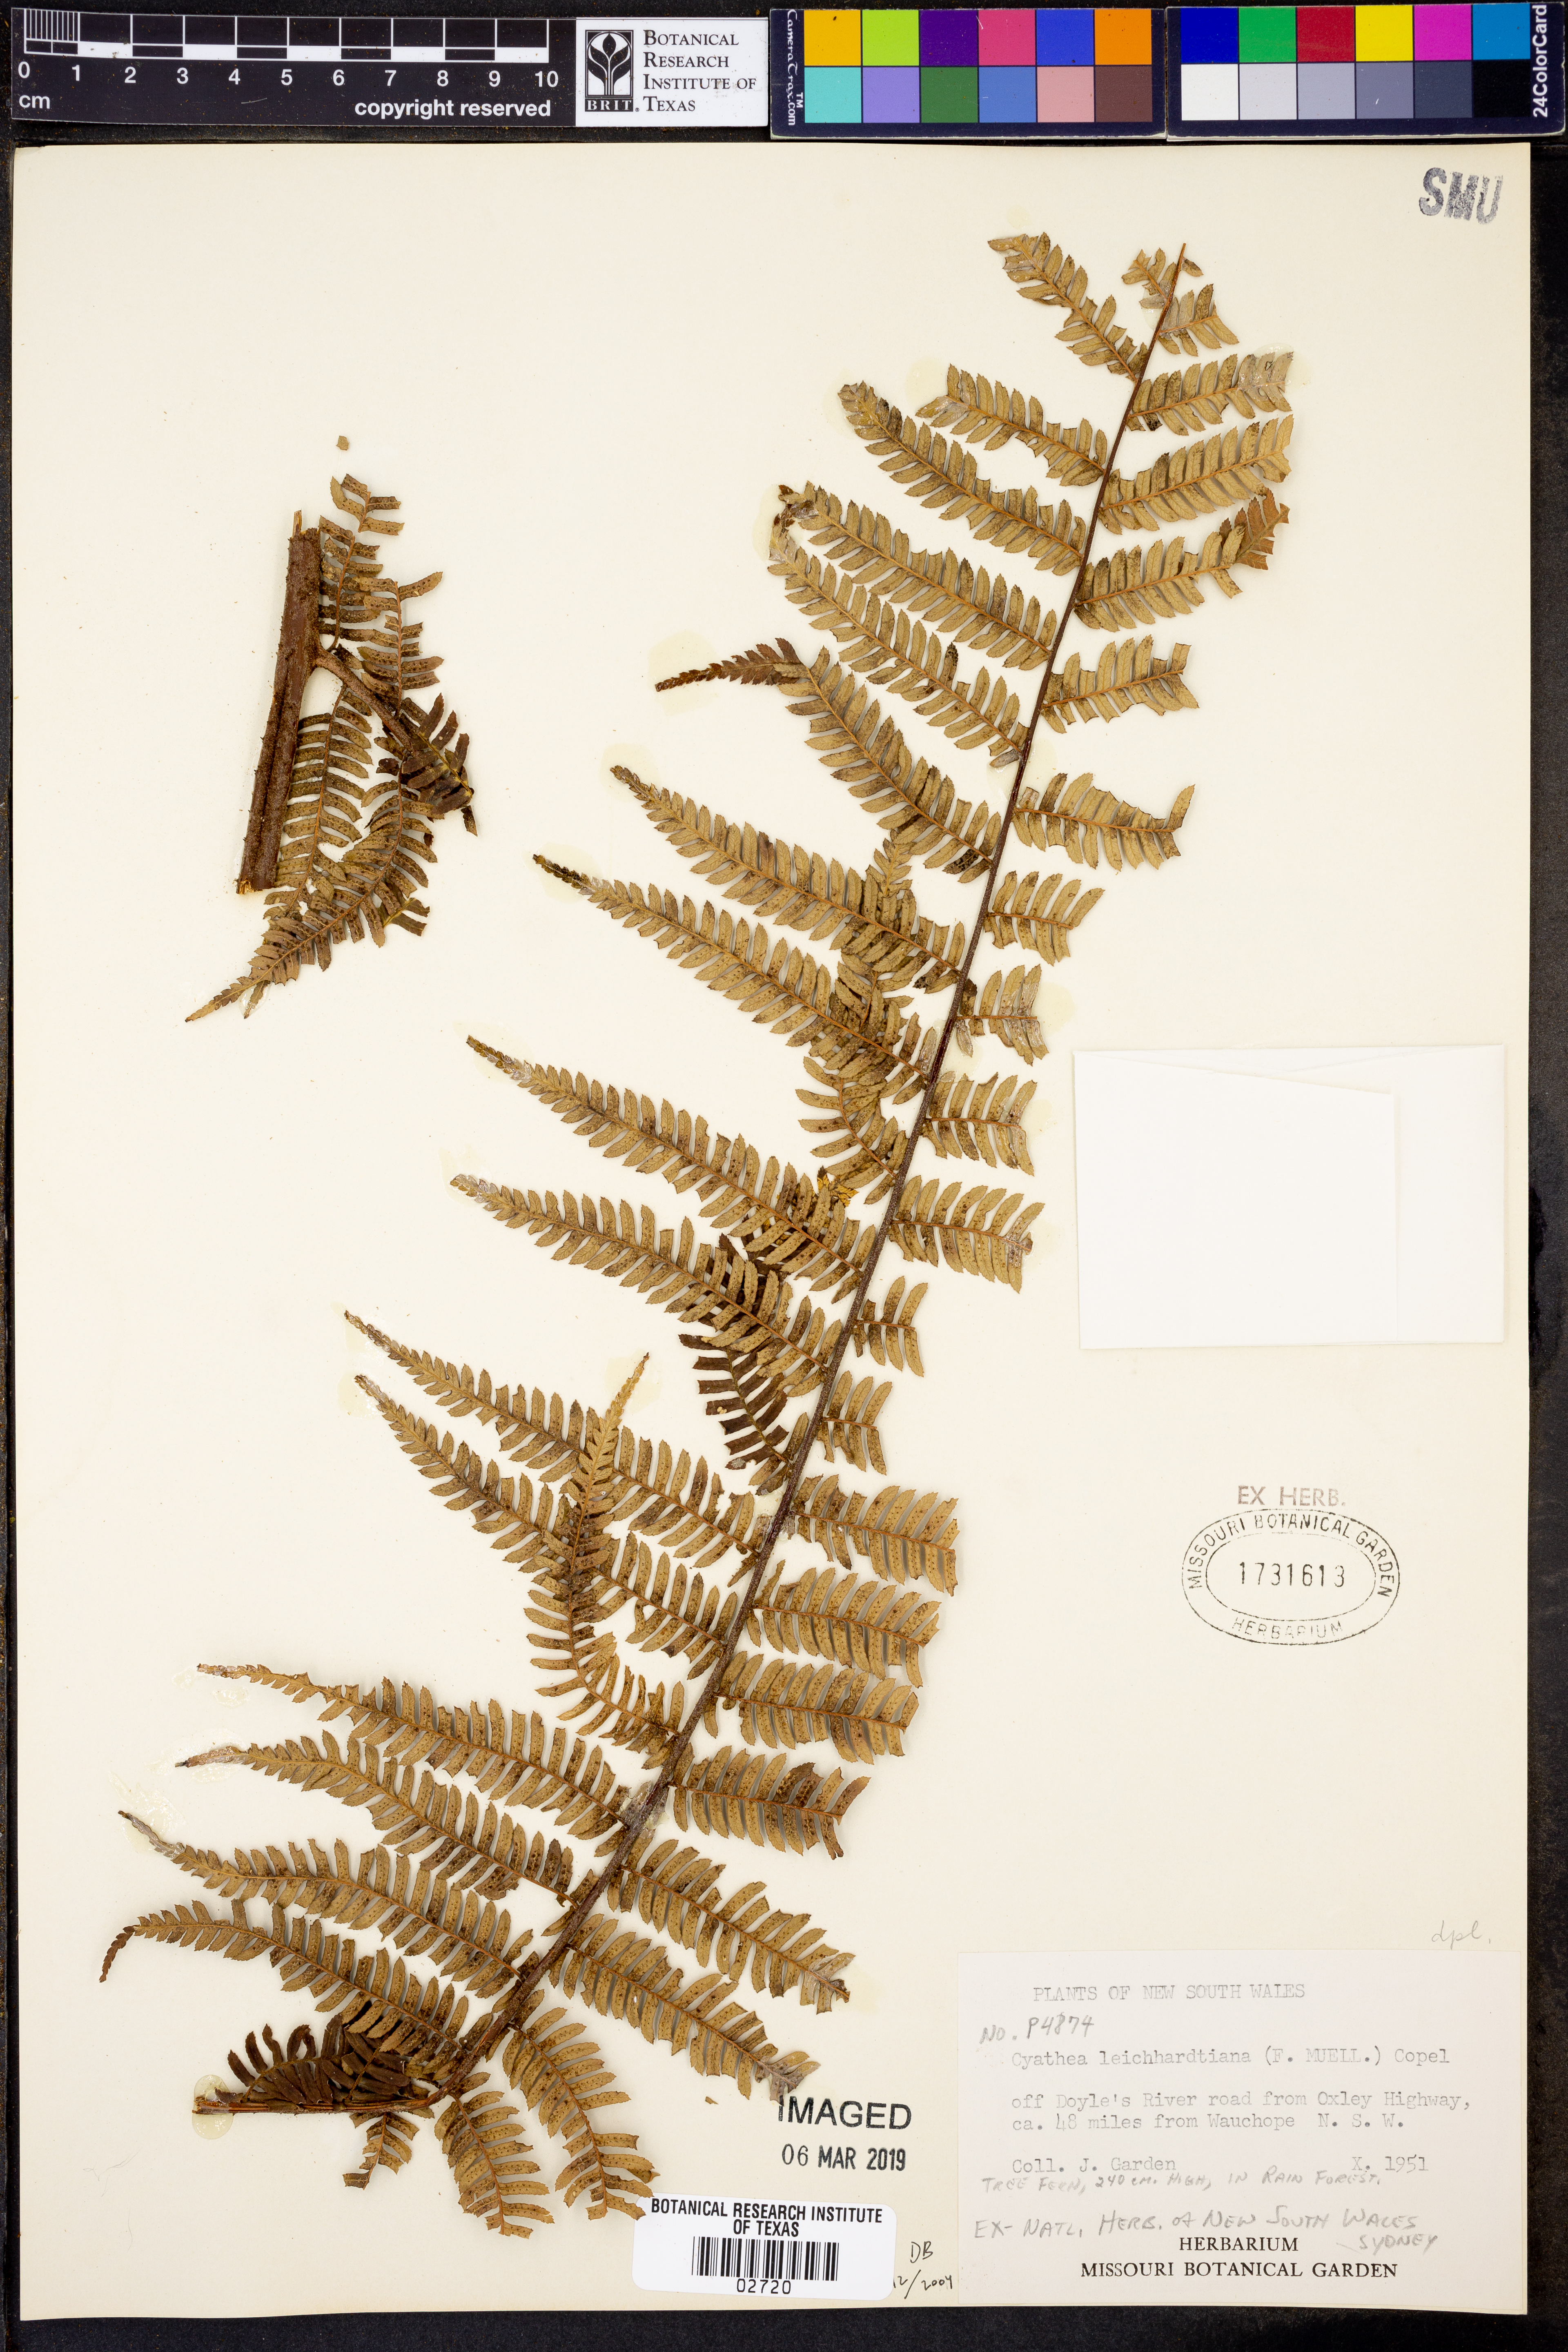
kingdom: Plantae
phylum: Tracheophyta
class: Polypodiopsida
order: Cyatheales
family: Cyatheaceae
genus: Alsophila
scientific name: Alsophila leichhardtiana
